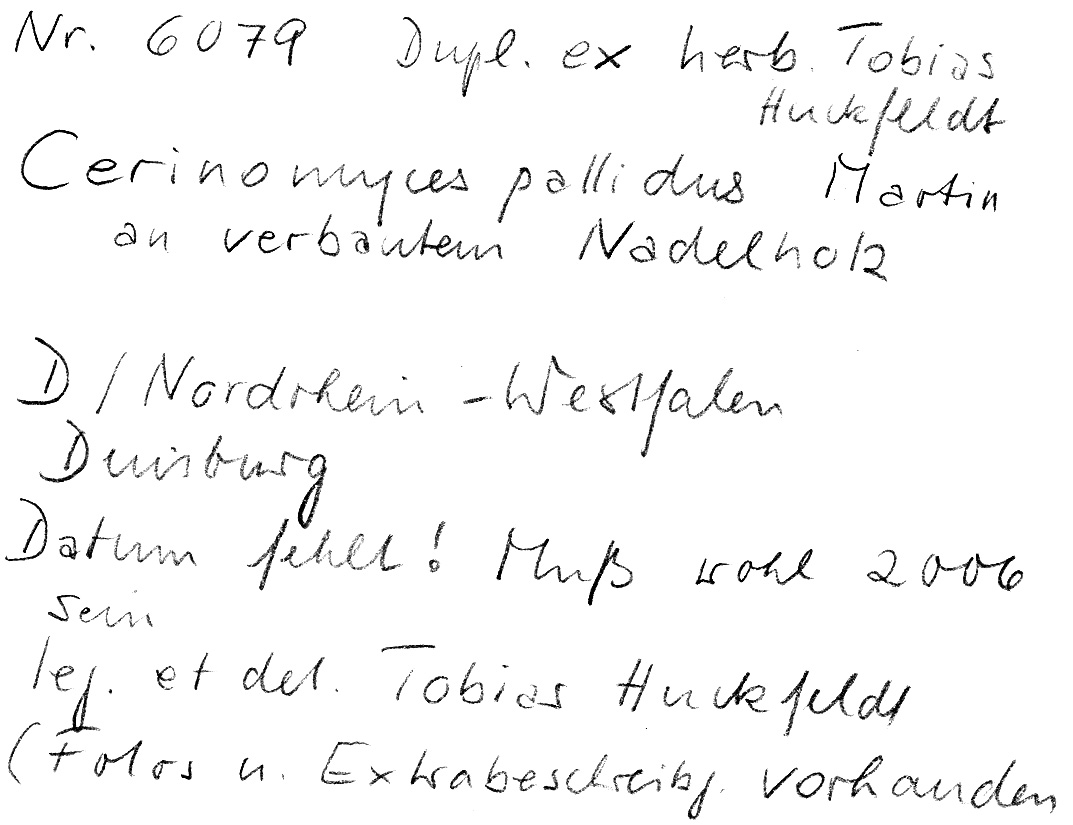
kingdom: Fungi
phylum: Basidiomycota
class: Dacrymycetes
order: Dacrymycetales
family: Cerinomycetaceae
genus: Cerinomyces
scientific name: Cerinomyces pallidus
